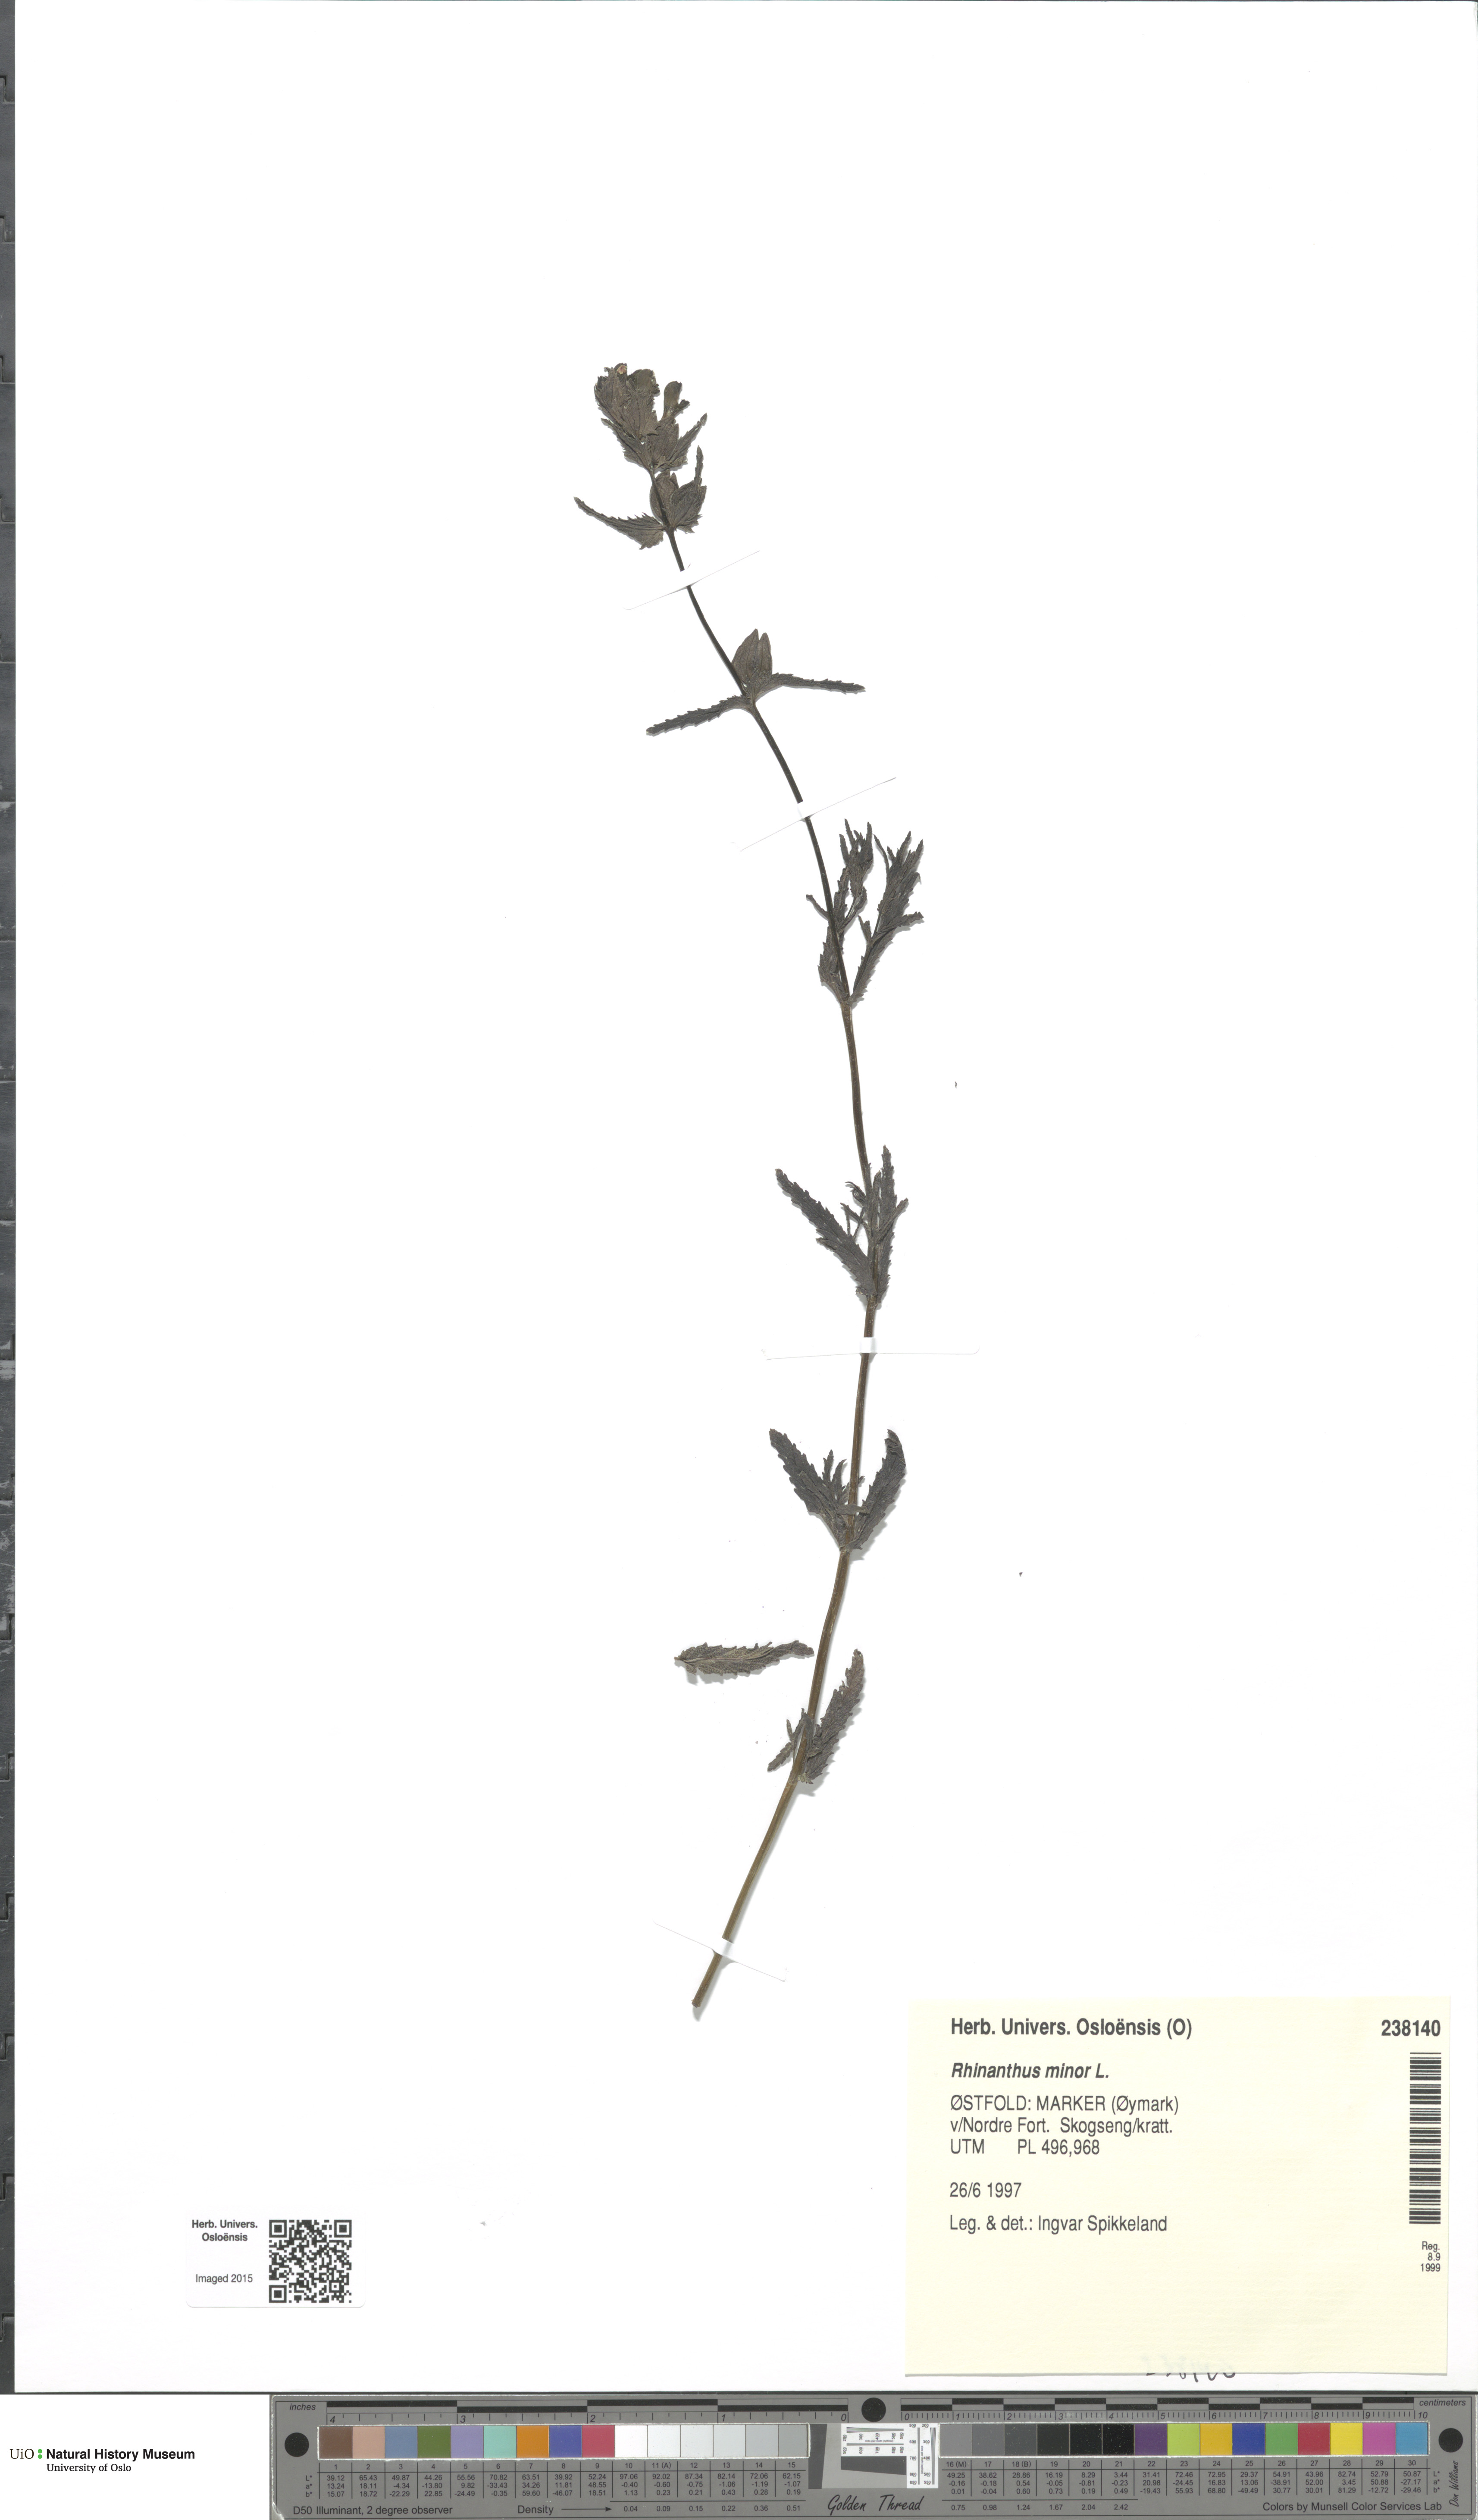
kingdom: Plantae
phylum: Tracheophyta
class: Magnoliopsida
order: Lamiales
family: Orobanchaceae
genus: Rhinanthus
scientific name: Rhinanthus minor
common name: Yellow-rattle
